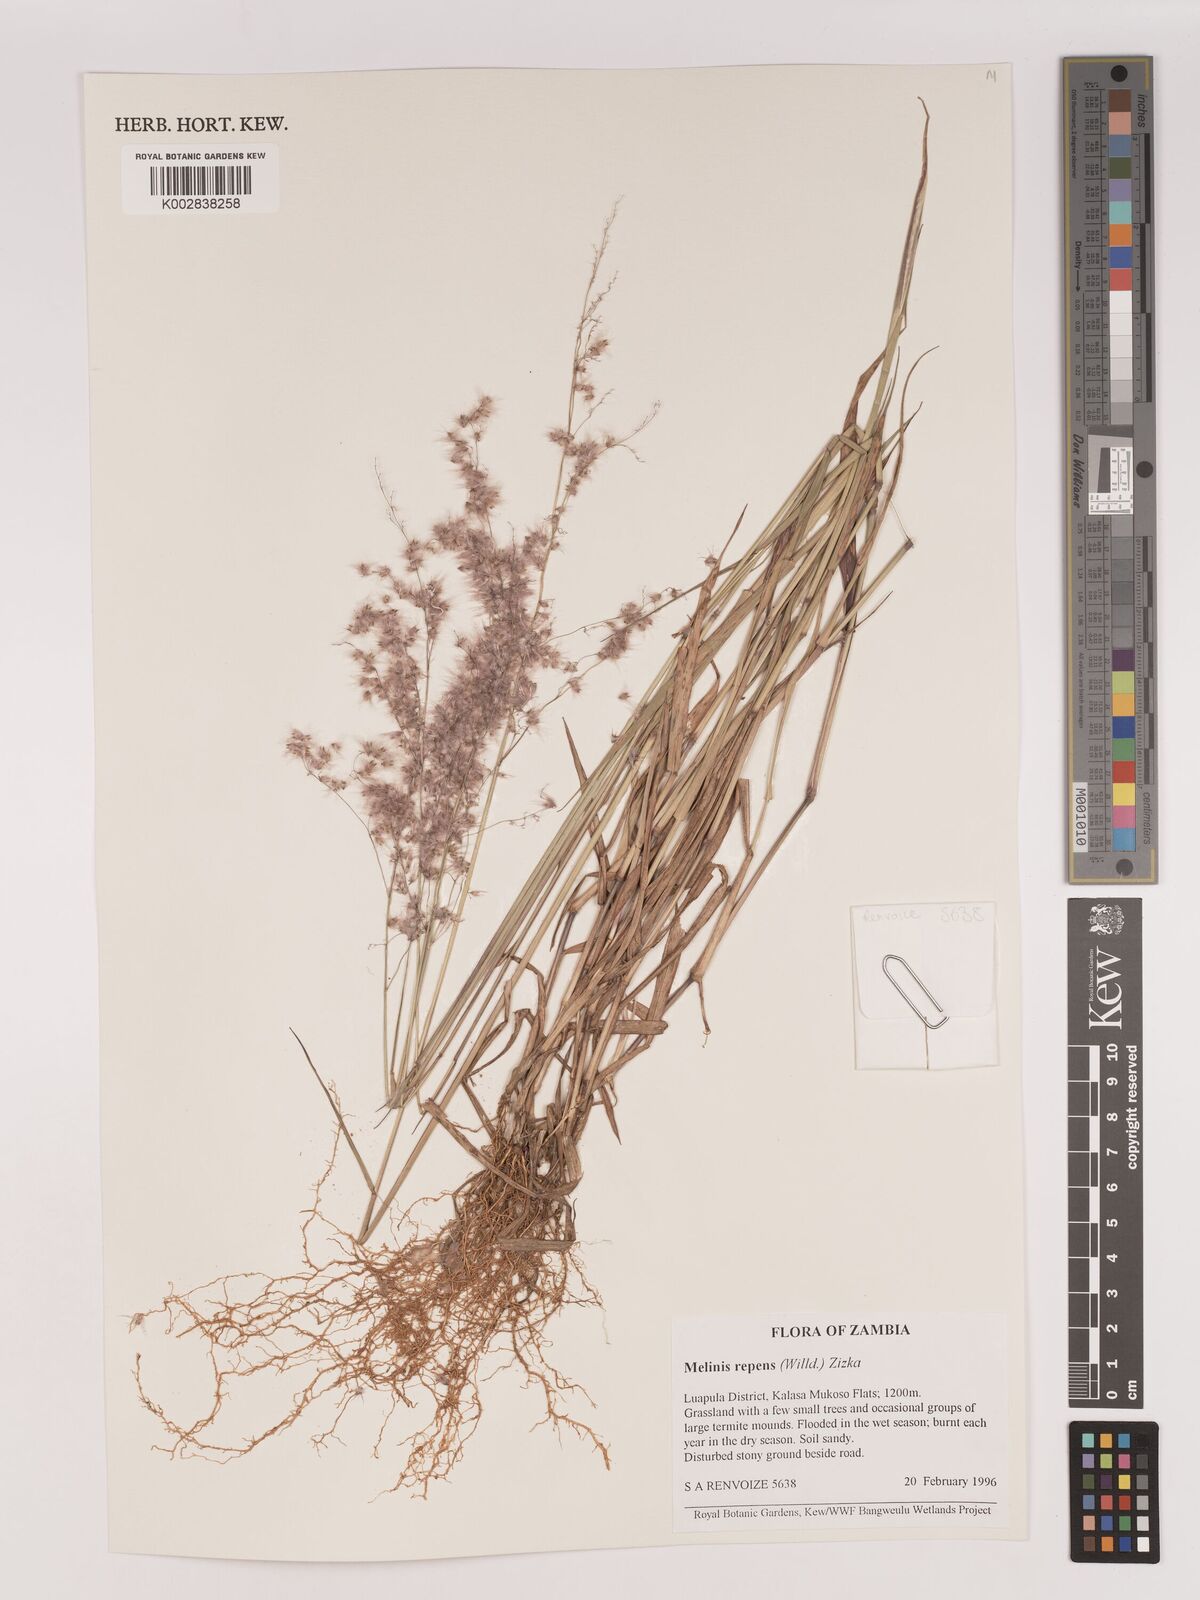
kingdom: Plantae
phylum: Tracheophyta
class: Liliopsida
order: Poales
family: Poaceae
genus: Melinis
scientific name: Melinis repens
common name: Rose natal grass
